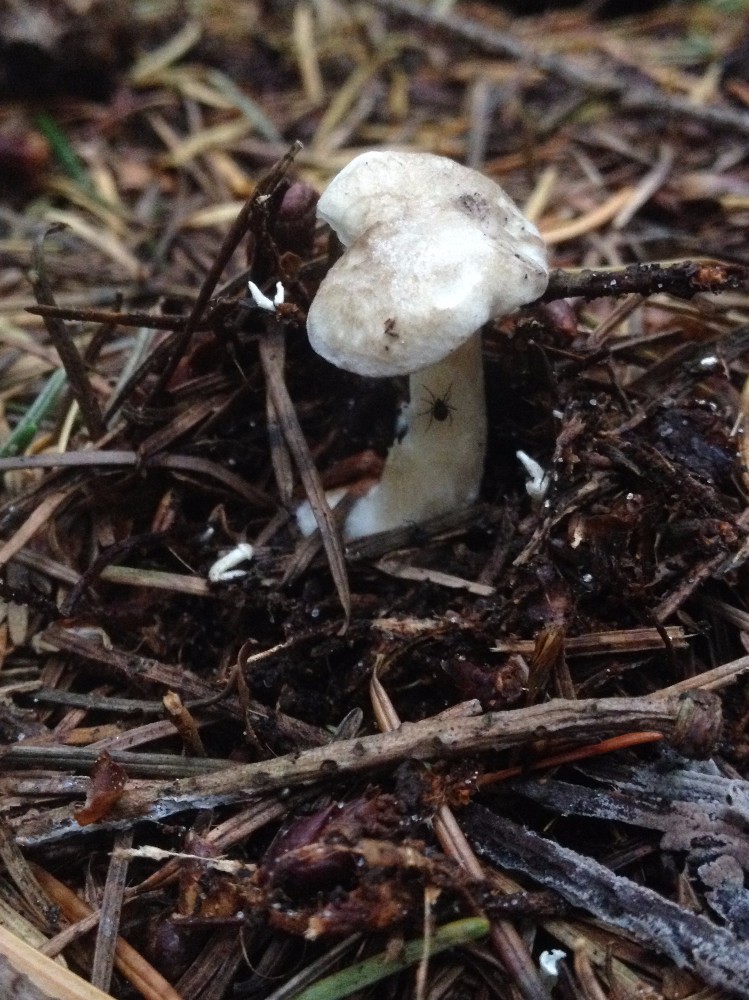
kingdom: Fungi
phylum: Basidiomycota
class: Agaricomycetes
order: Agaricales
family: Tricholomataceae
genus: Clitocybe
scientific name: Clitocybe nebularis
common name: tåge-tragthat
